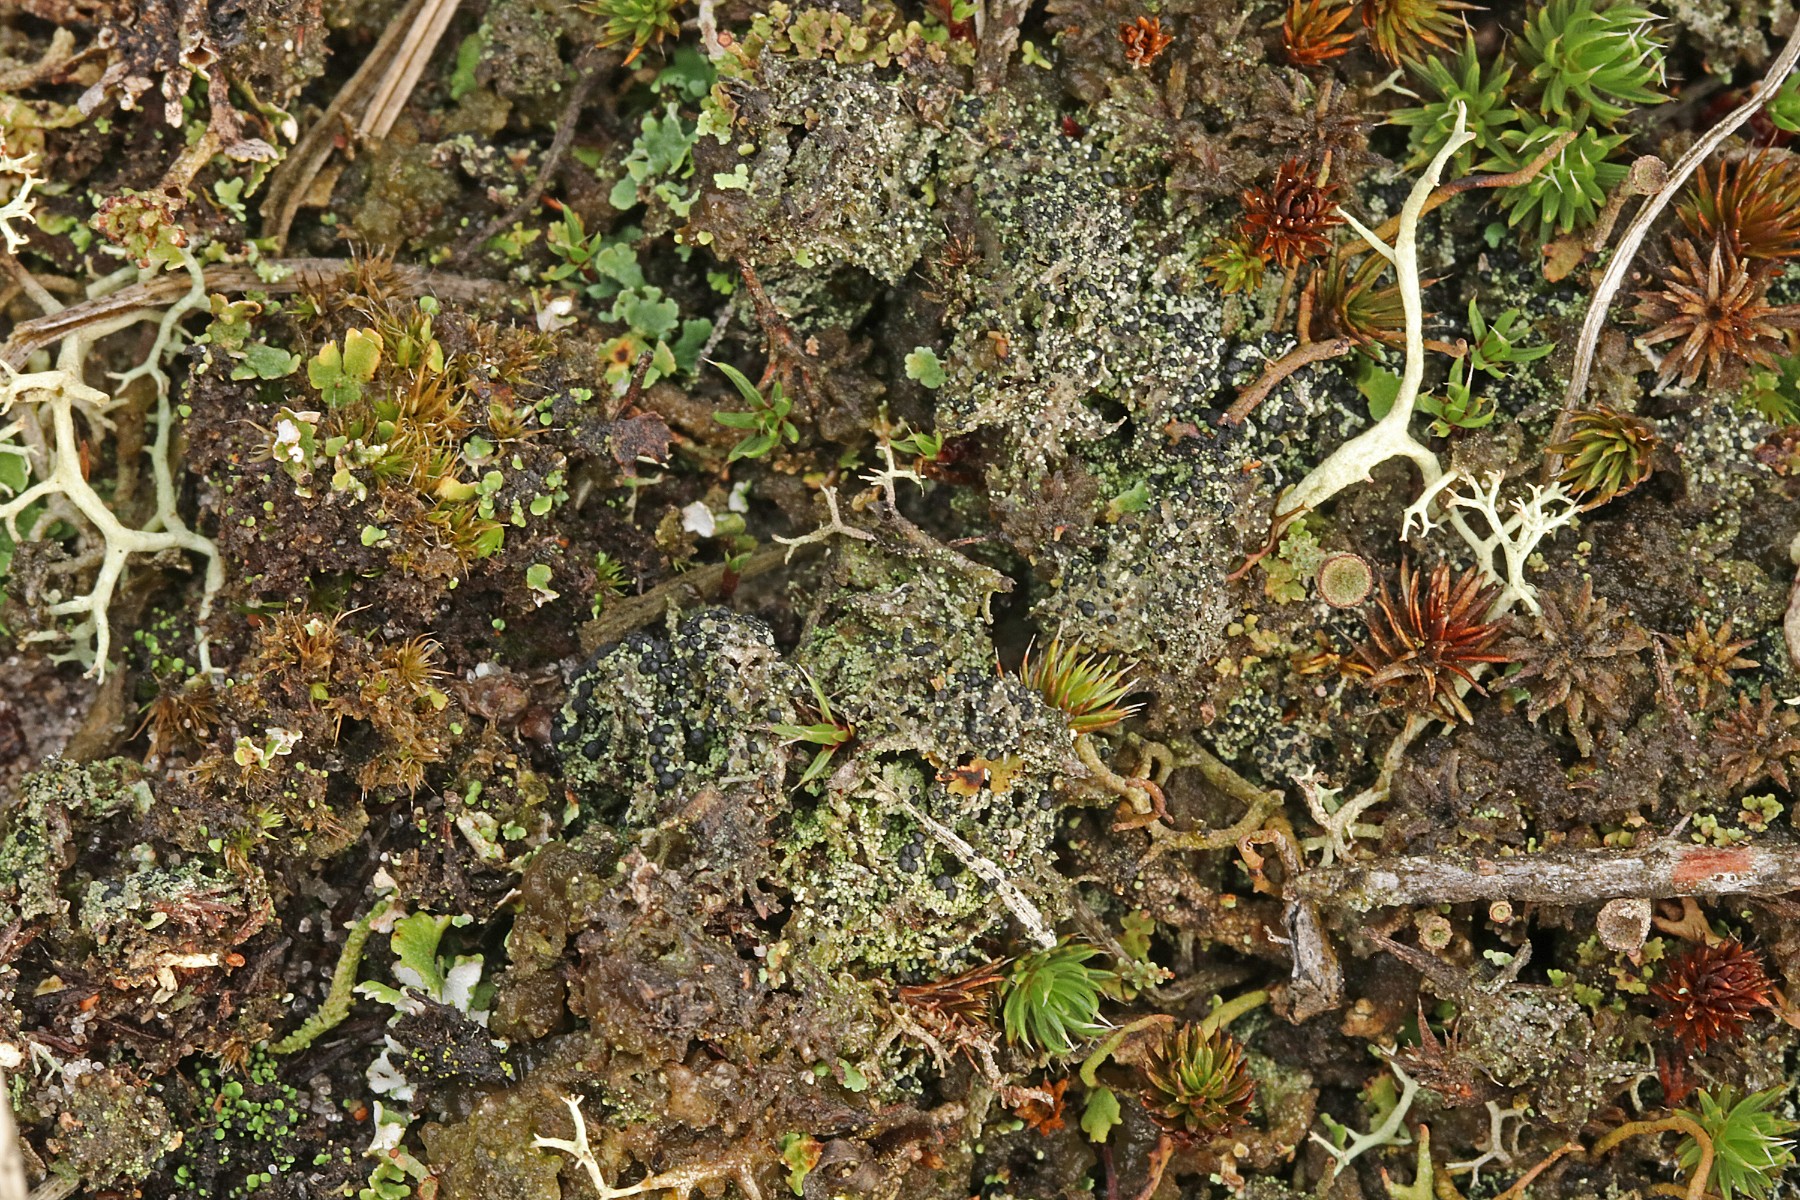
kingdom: Fungi
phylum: Ascomycota
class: Lecanoromycetes
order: Lecanorales
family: Byssolomataceae
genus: Micarea
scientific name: Micarea lignaria
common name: tørve-knaplav
